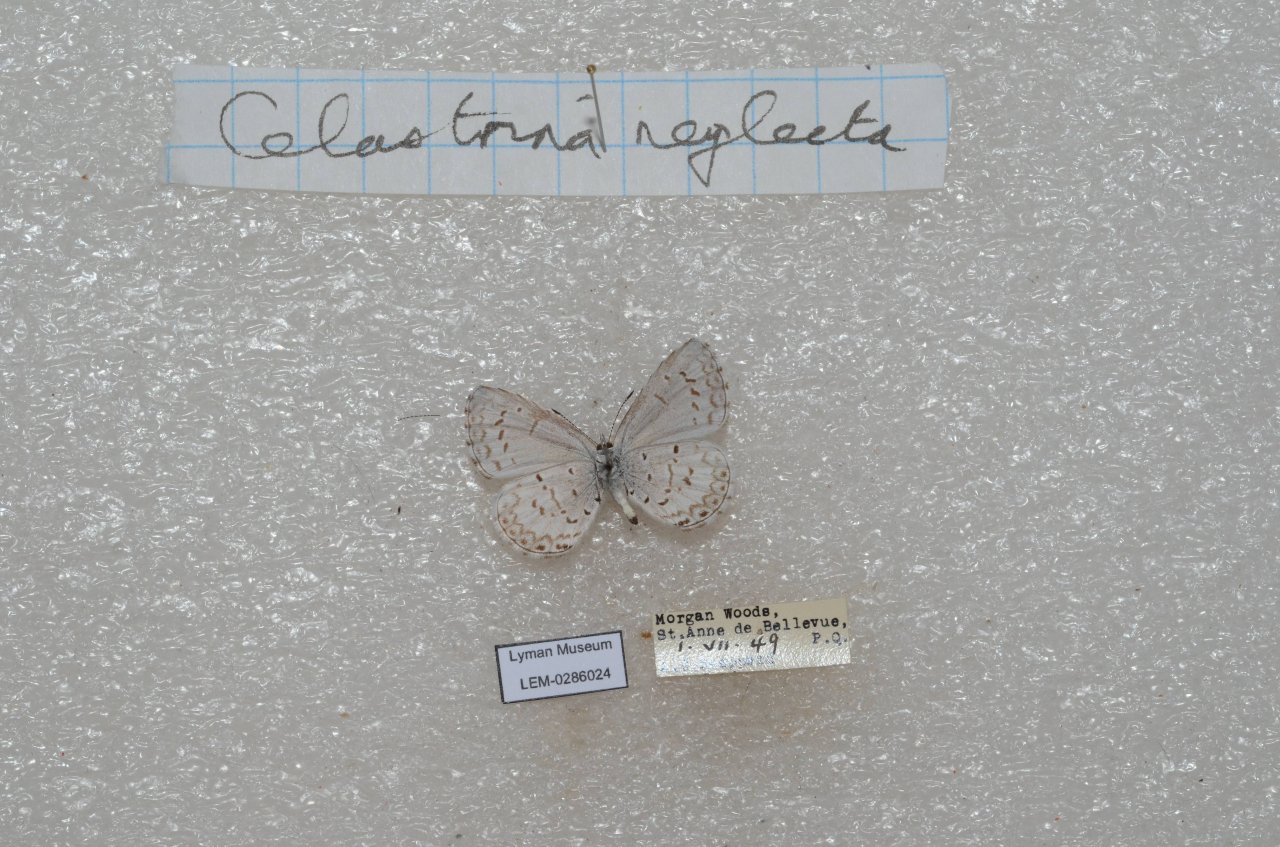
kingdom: Animalia
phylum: Arthropoda
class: Insecta
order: Lepidoptera
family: Lycaenidae
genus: Celastrina
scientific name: Celastrina lucia
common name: Northern Spring Azure
